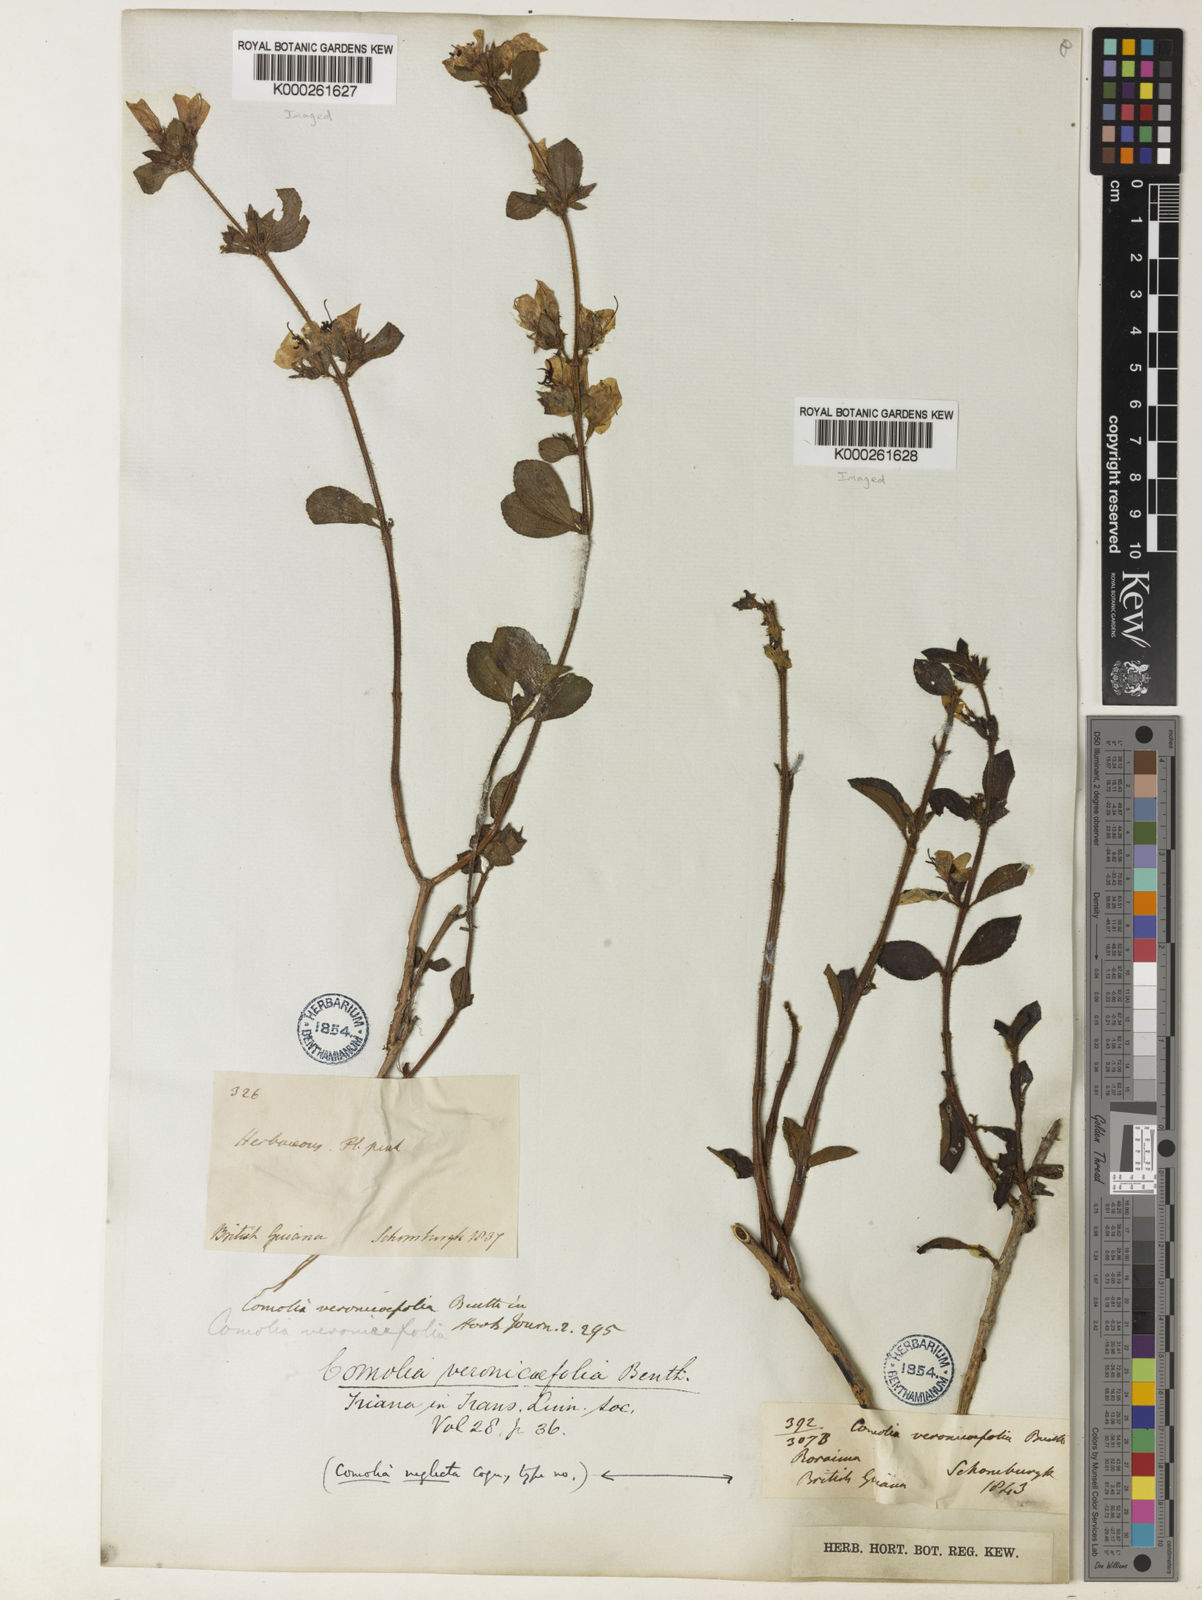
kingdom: Plantae
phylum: Tracheophyta
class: Magnoliopsida
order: Myrtales
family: Melastomataceae
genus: Comolia
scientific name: Comolia villosa
